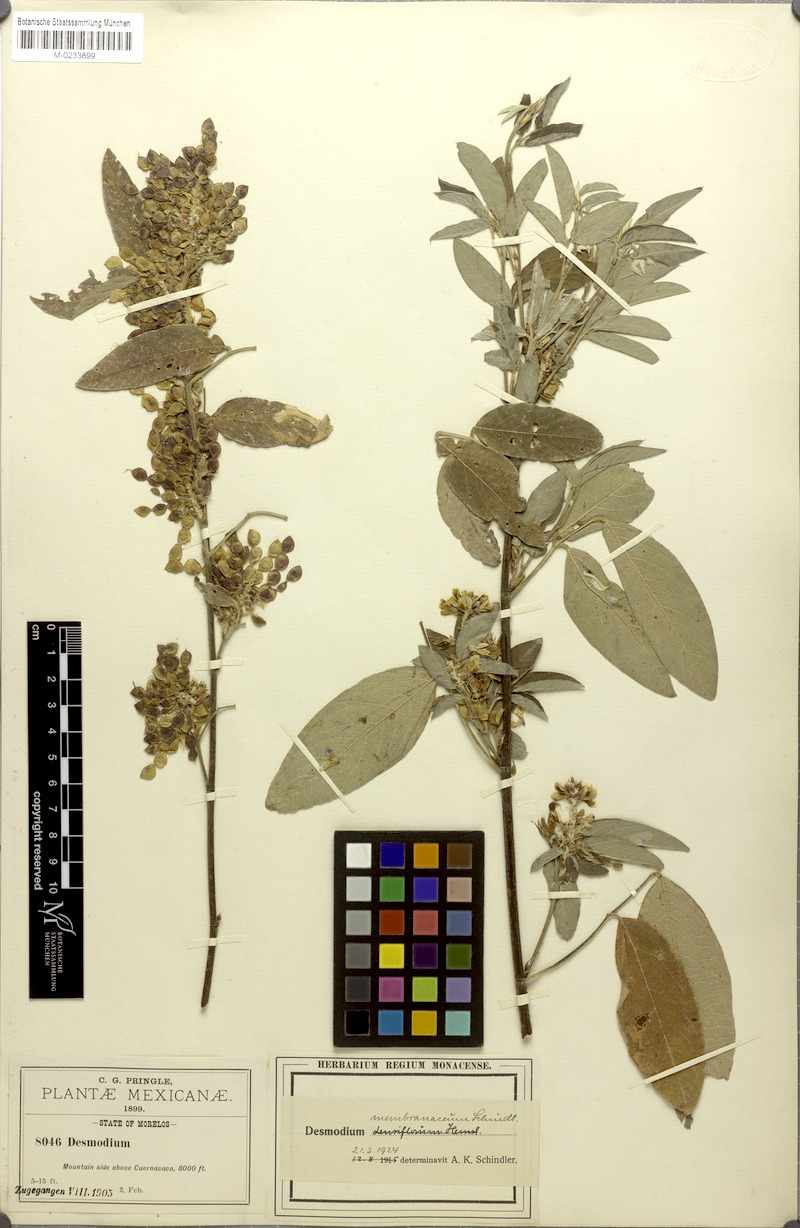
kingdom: Plantae
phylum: Tracheophyta
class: Magnoliopsida
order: Fabales
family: Fabaceae
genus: Desmodium
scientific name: Desmodium densiflorum
